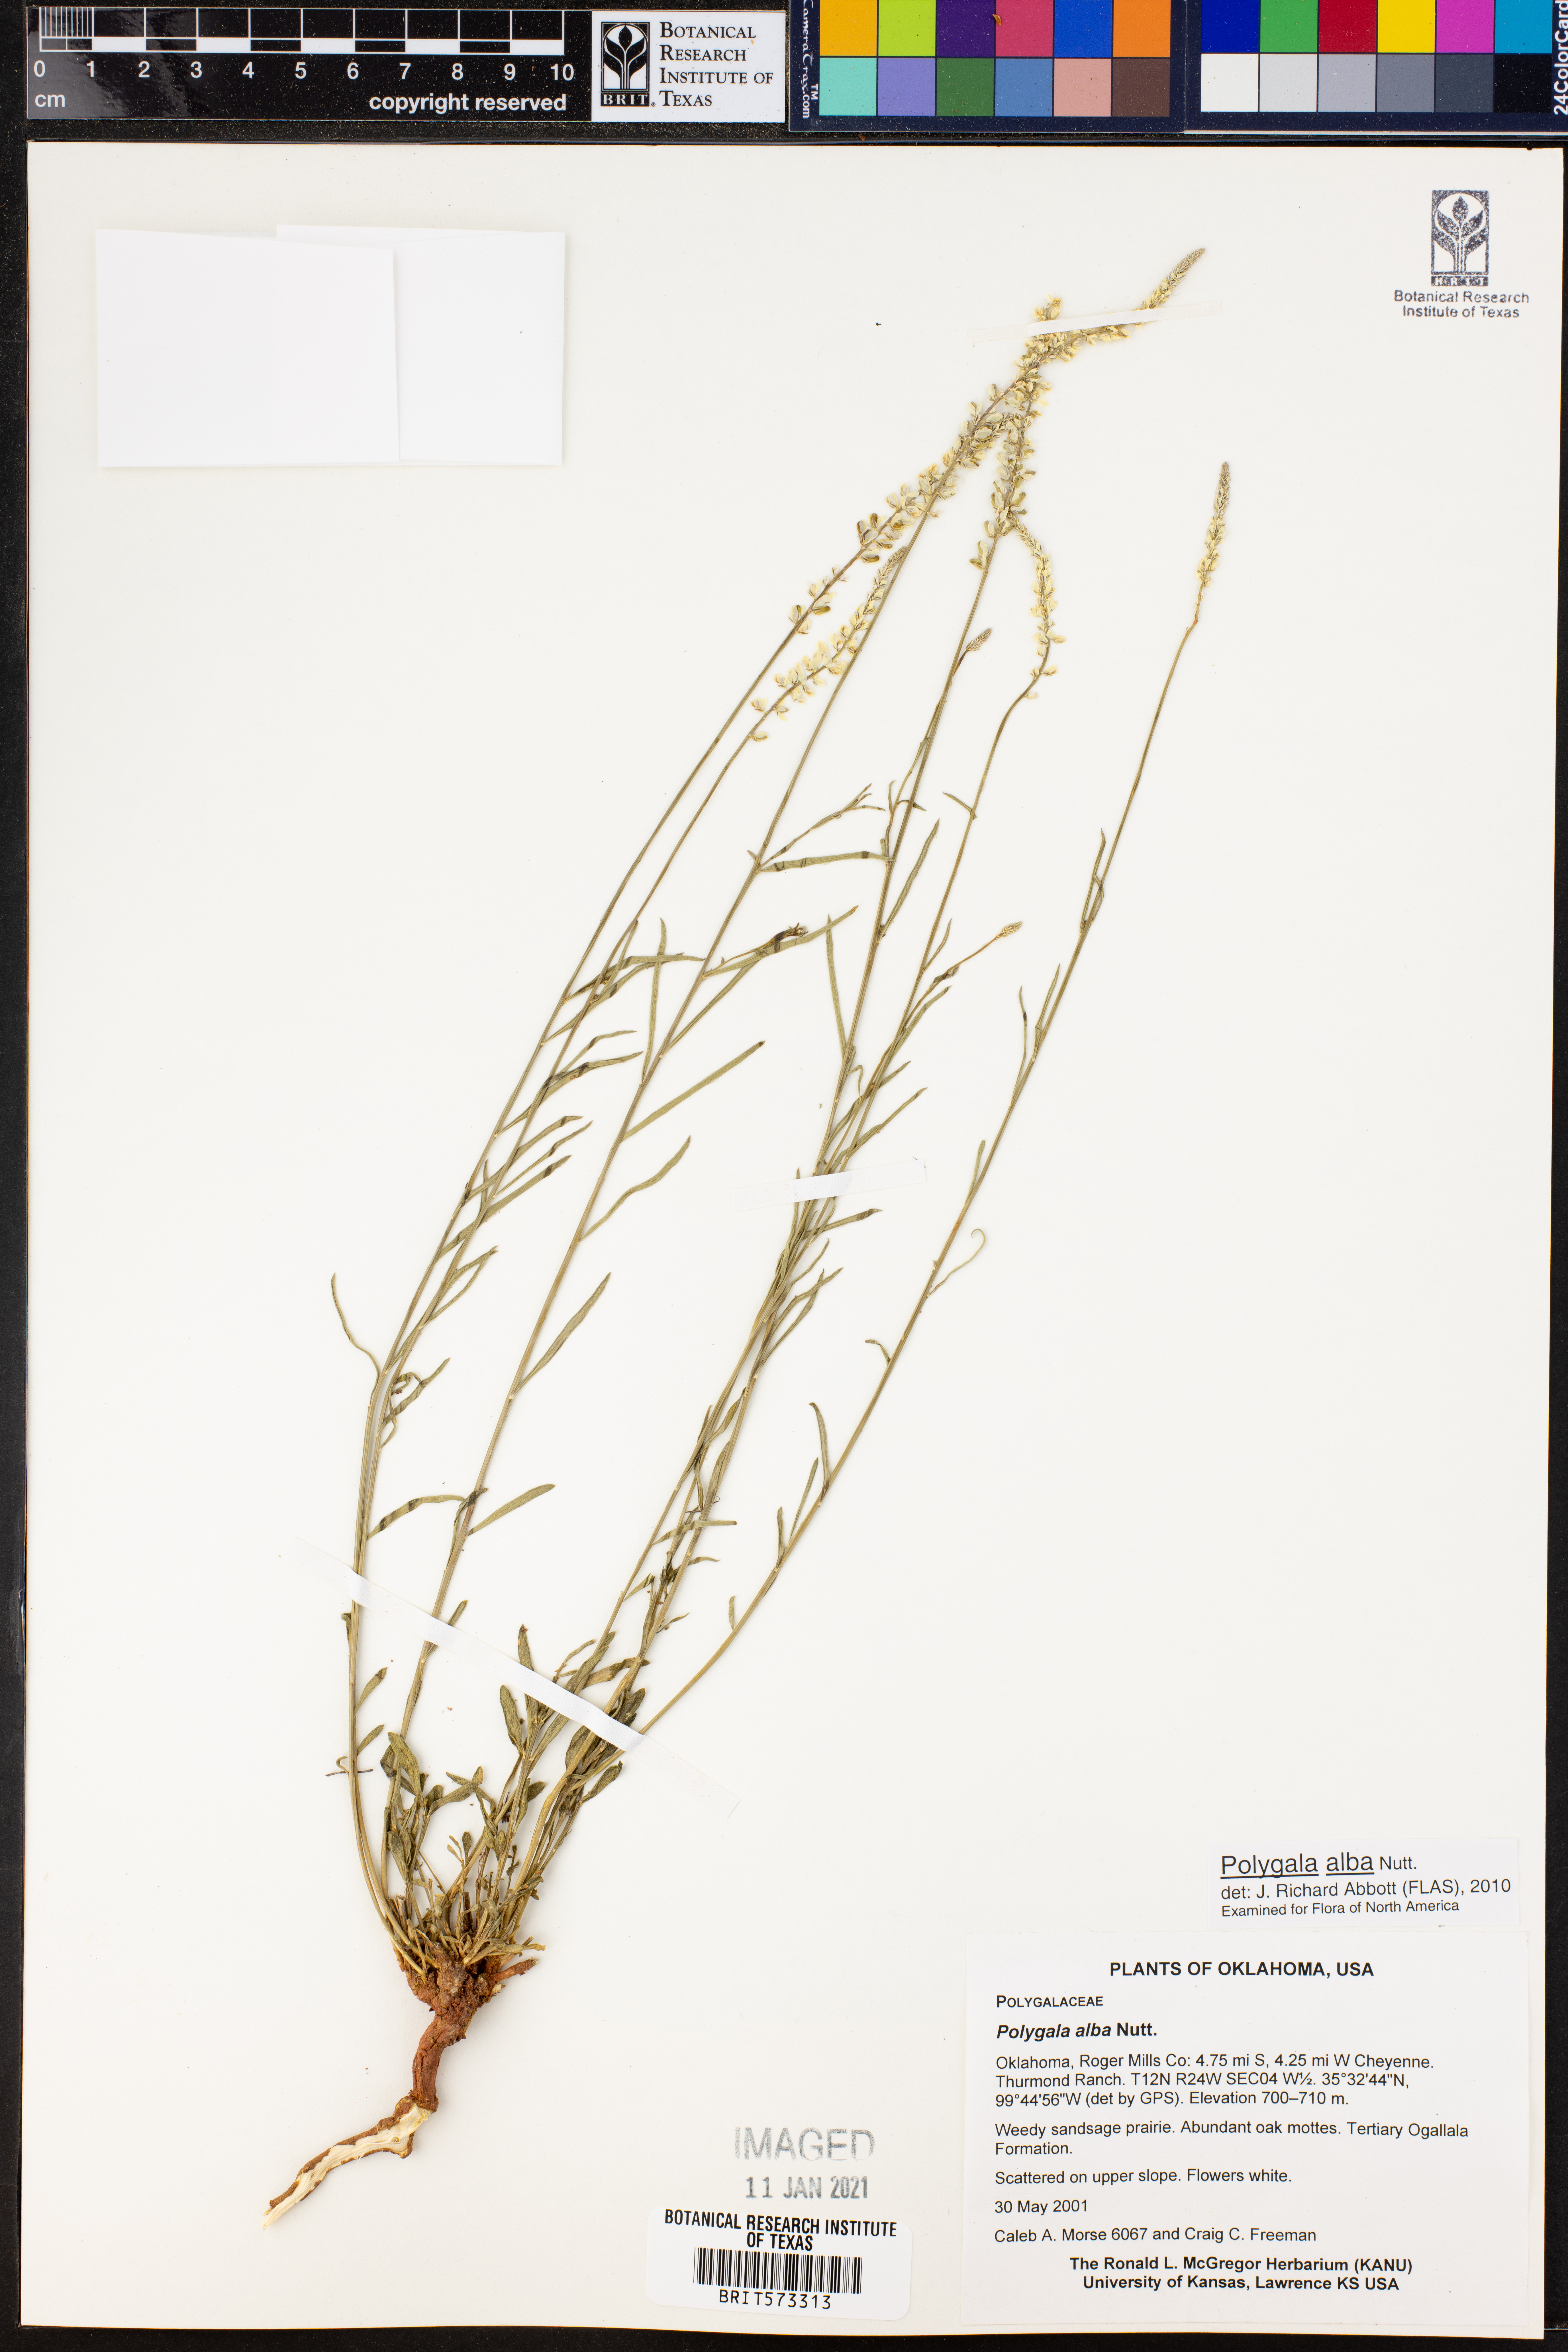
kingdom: Plantae
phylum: Tracheophyta
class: Magnoliopsida
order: Fabales
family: Polygalaceae
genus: Polygala
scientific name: Polygala alba
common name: White milkwort
